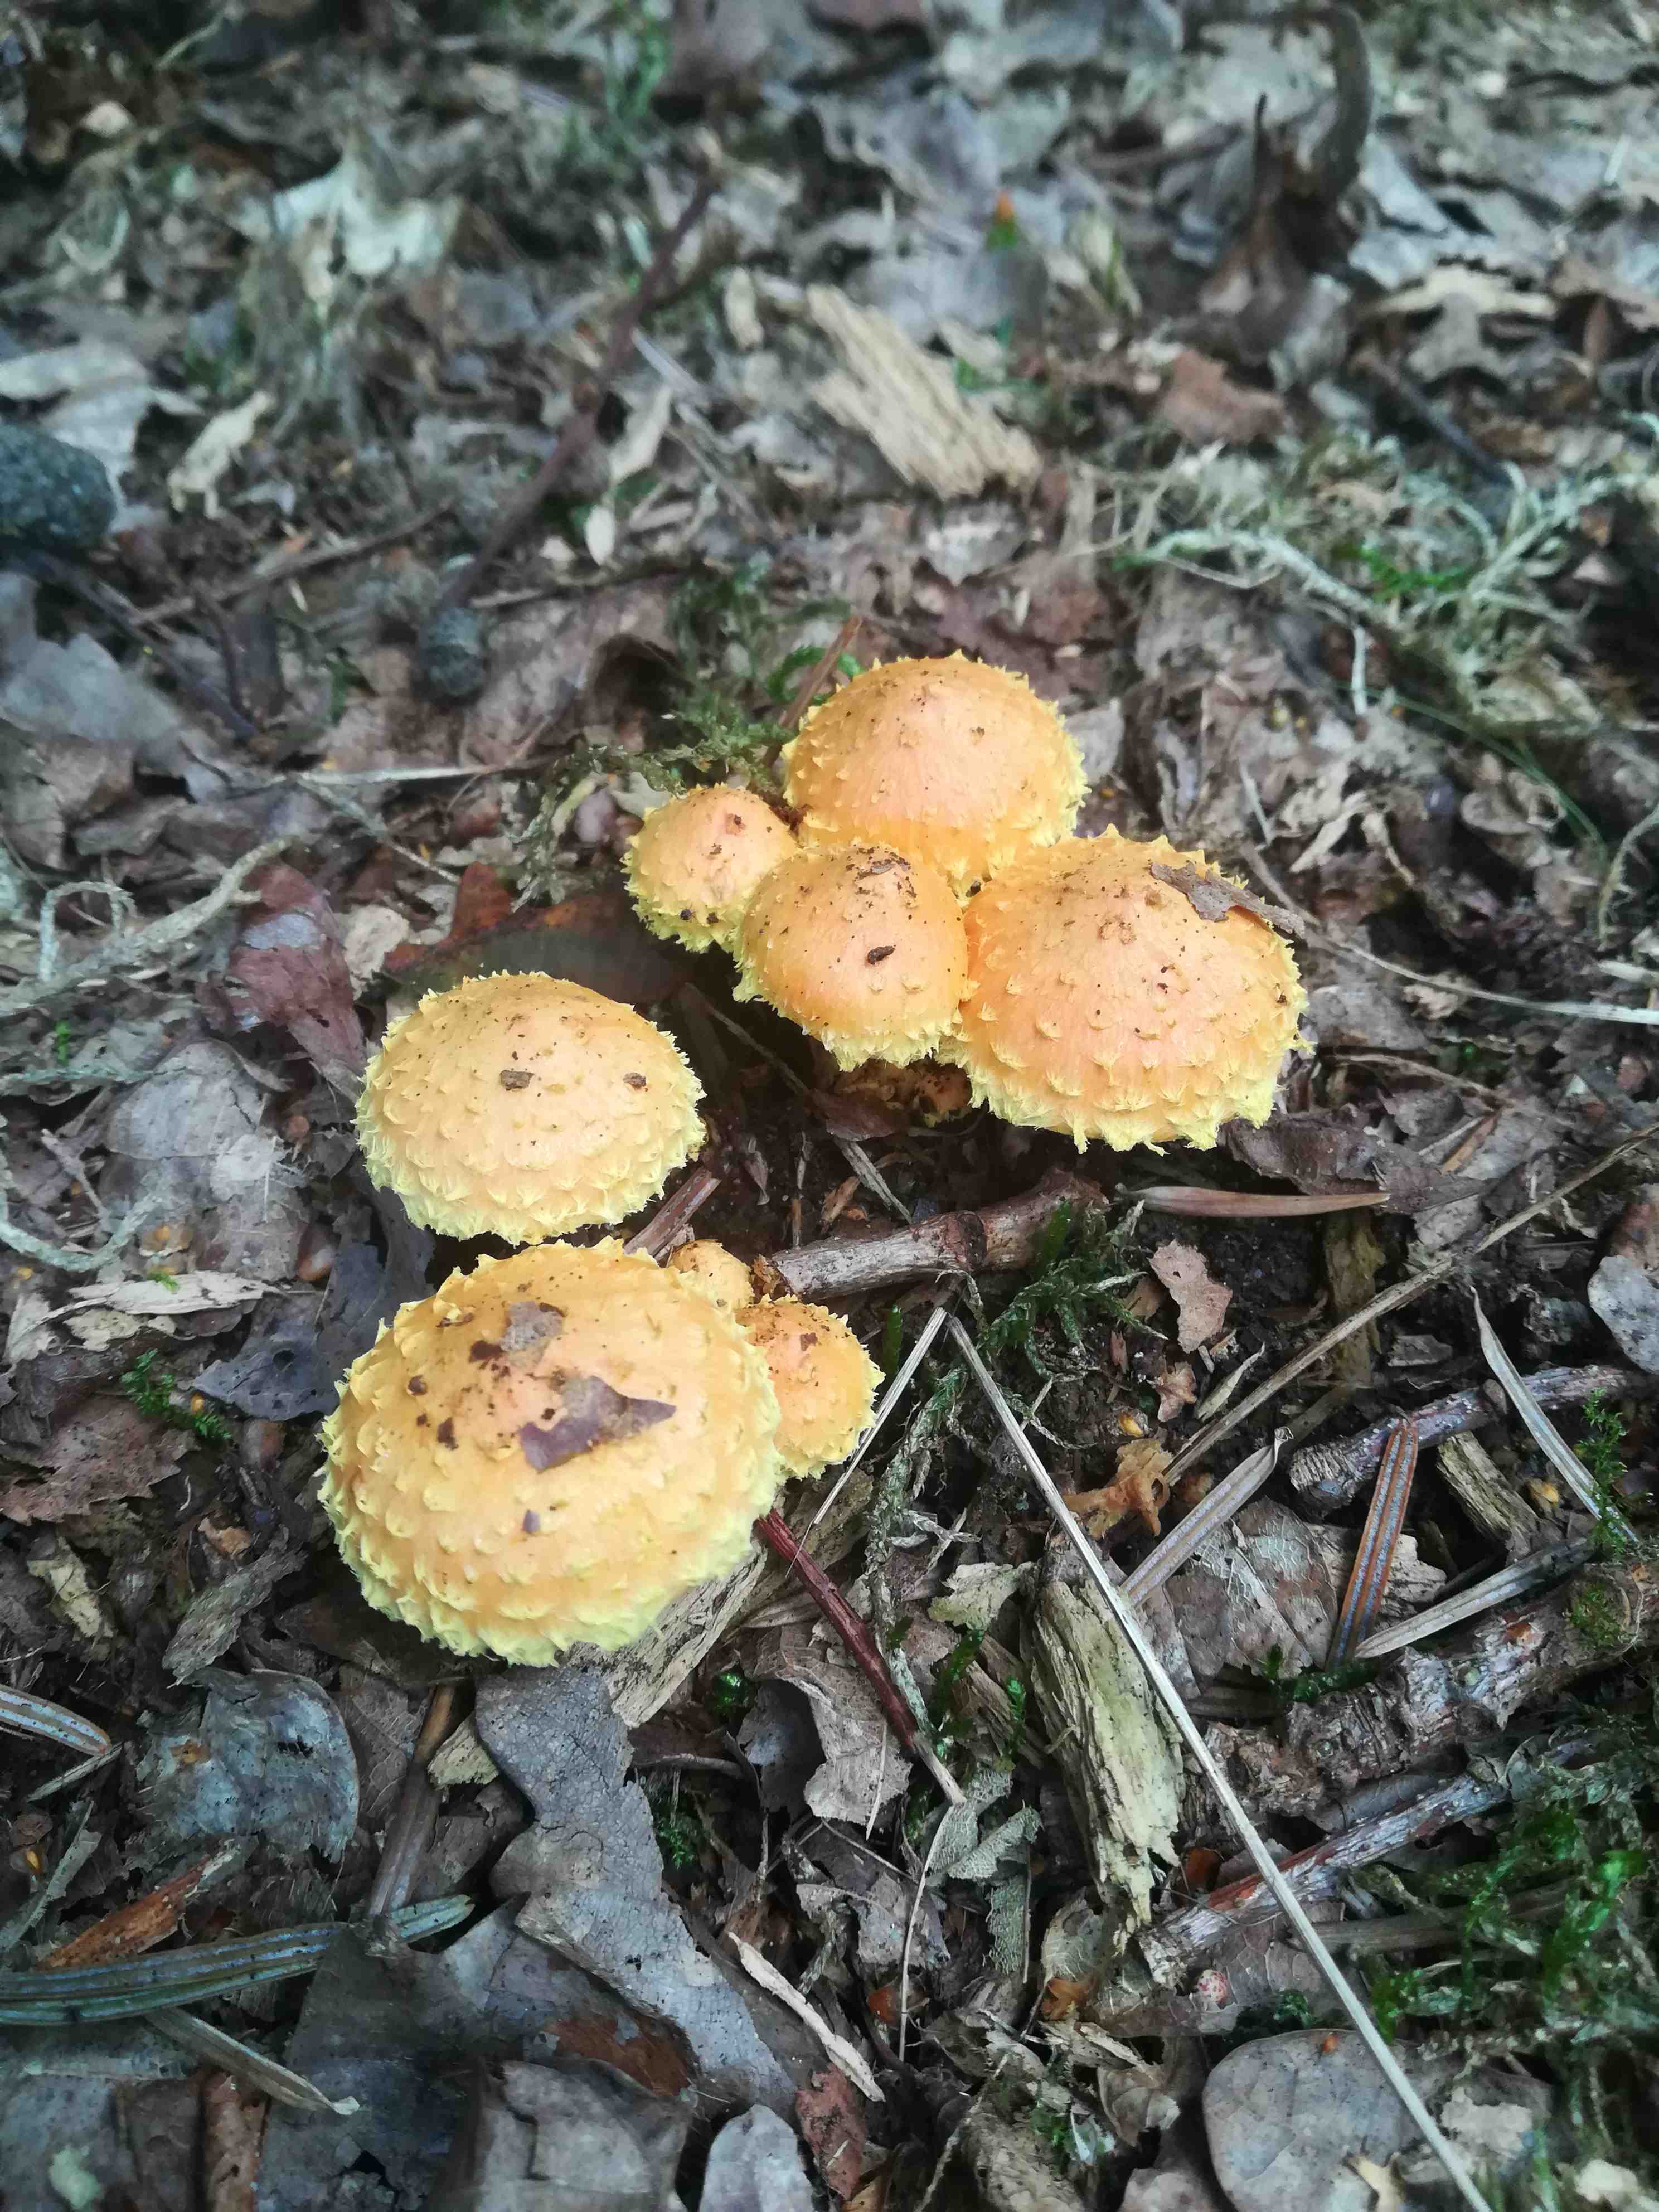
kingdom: Fungi
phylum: Basidiomycota
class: Agaricomycetes
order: Agaricales
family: Strophariaceae
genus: Pholiota
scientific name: Pholiota flammans
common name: flamme-skælhat
